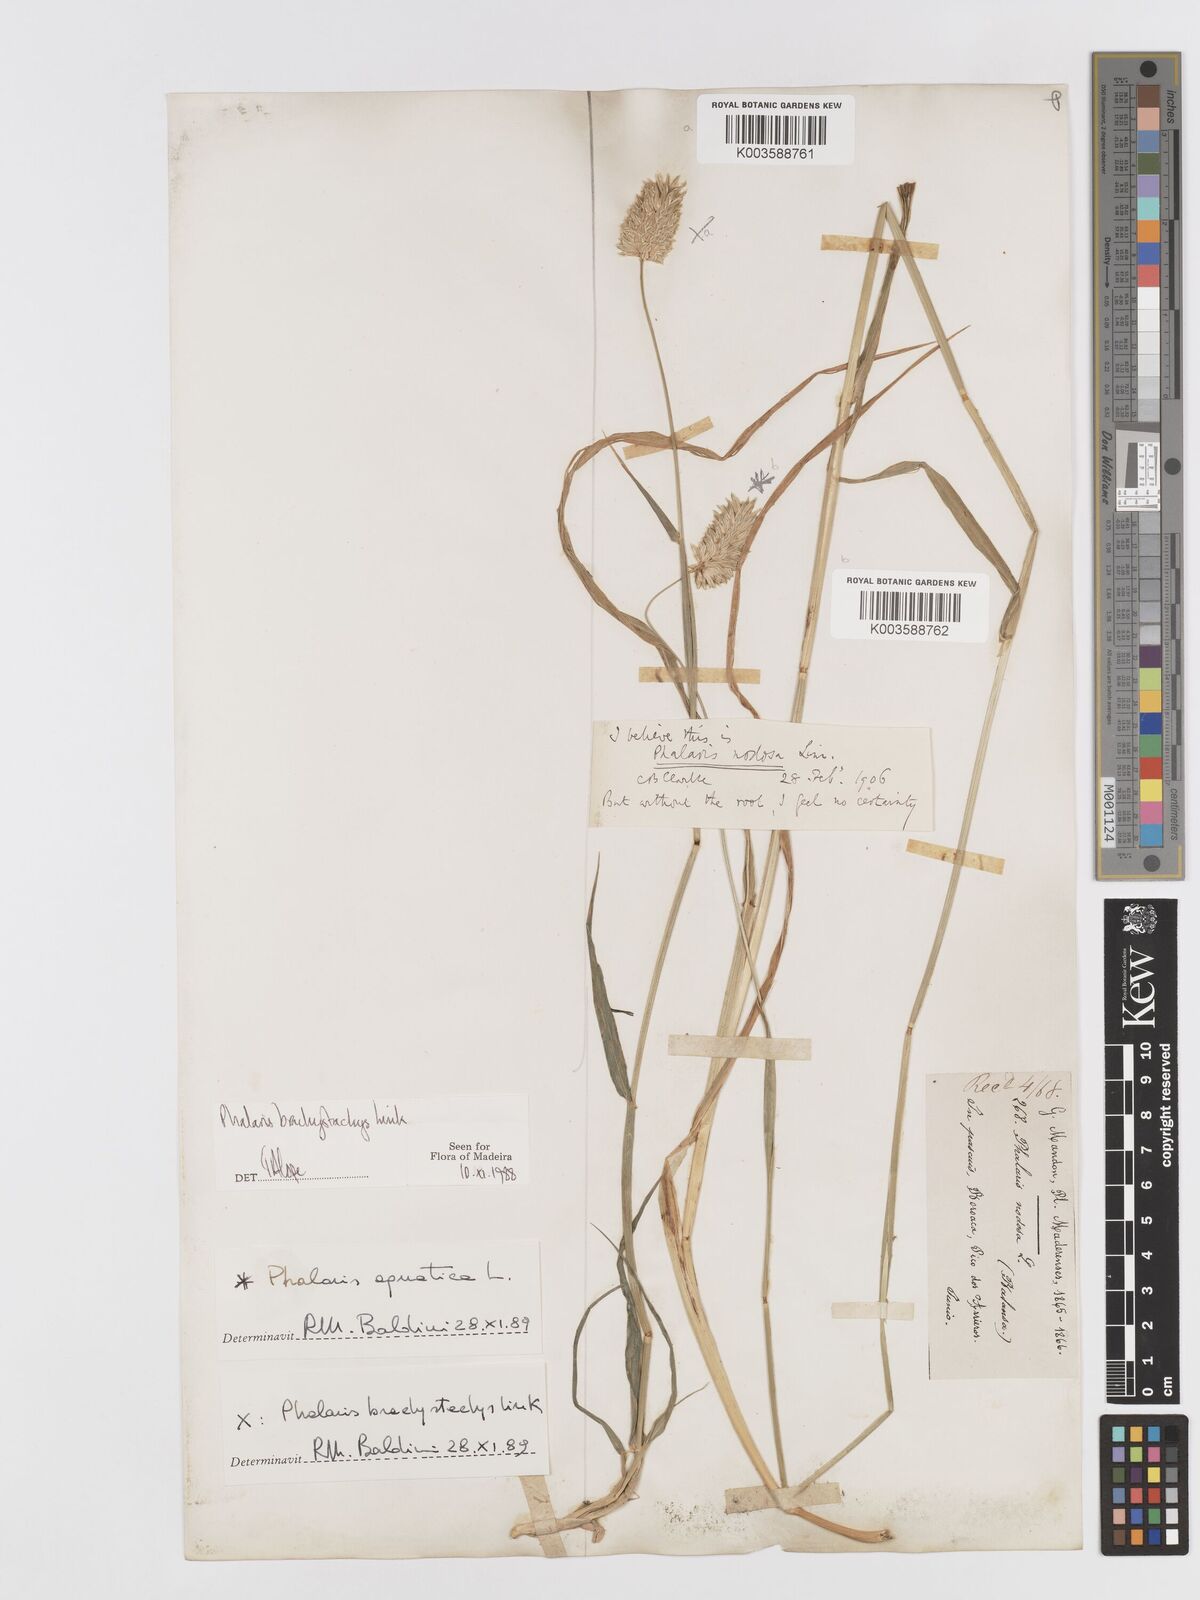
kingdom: Plantae
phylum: Tracheophyta
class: Liliopsida
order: Poales
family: Poaceae
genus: Phalaris
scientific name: Phalaris brachystachys
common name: Confused canary-grass
